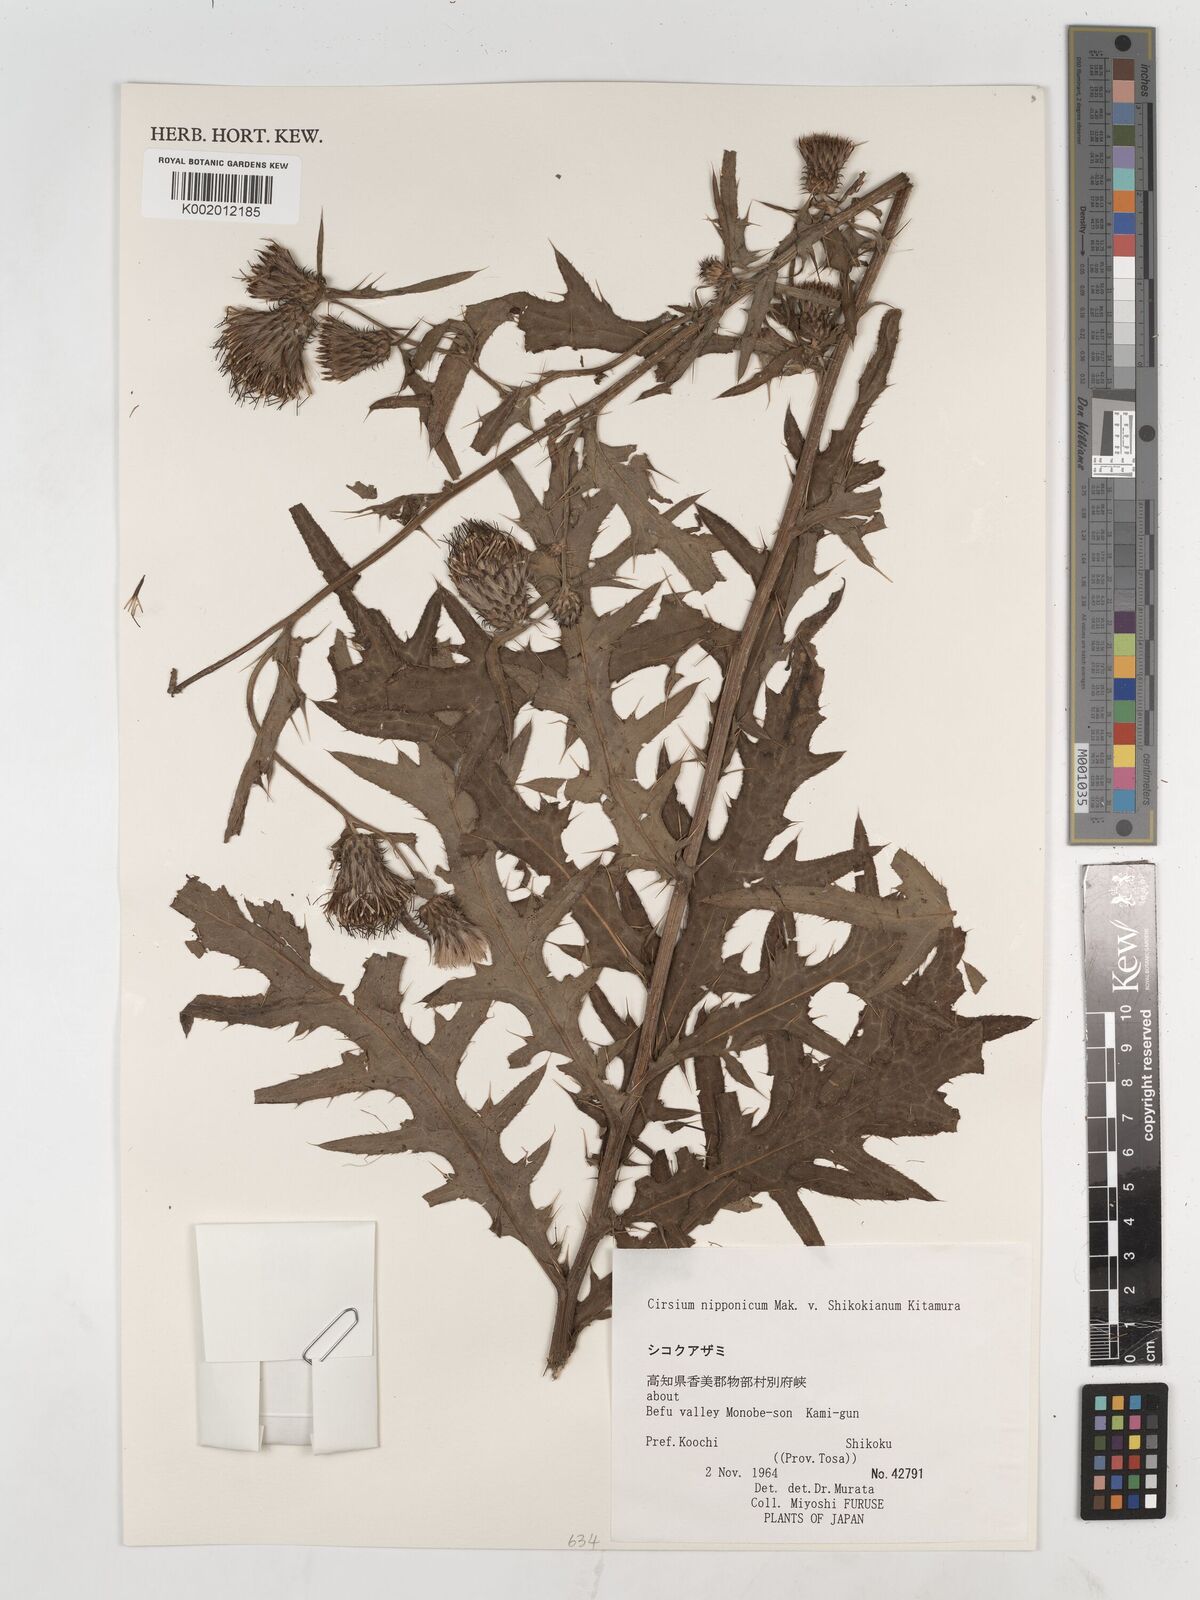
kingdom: Plantae
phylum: Tracheophyta
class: Magnoliopsida
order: Asterales
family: Asteraceae
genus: Cirsium
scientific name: Cirsium nipponicum
